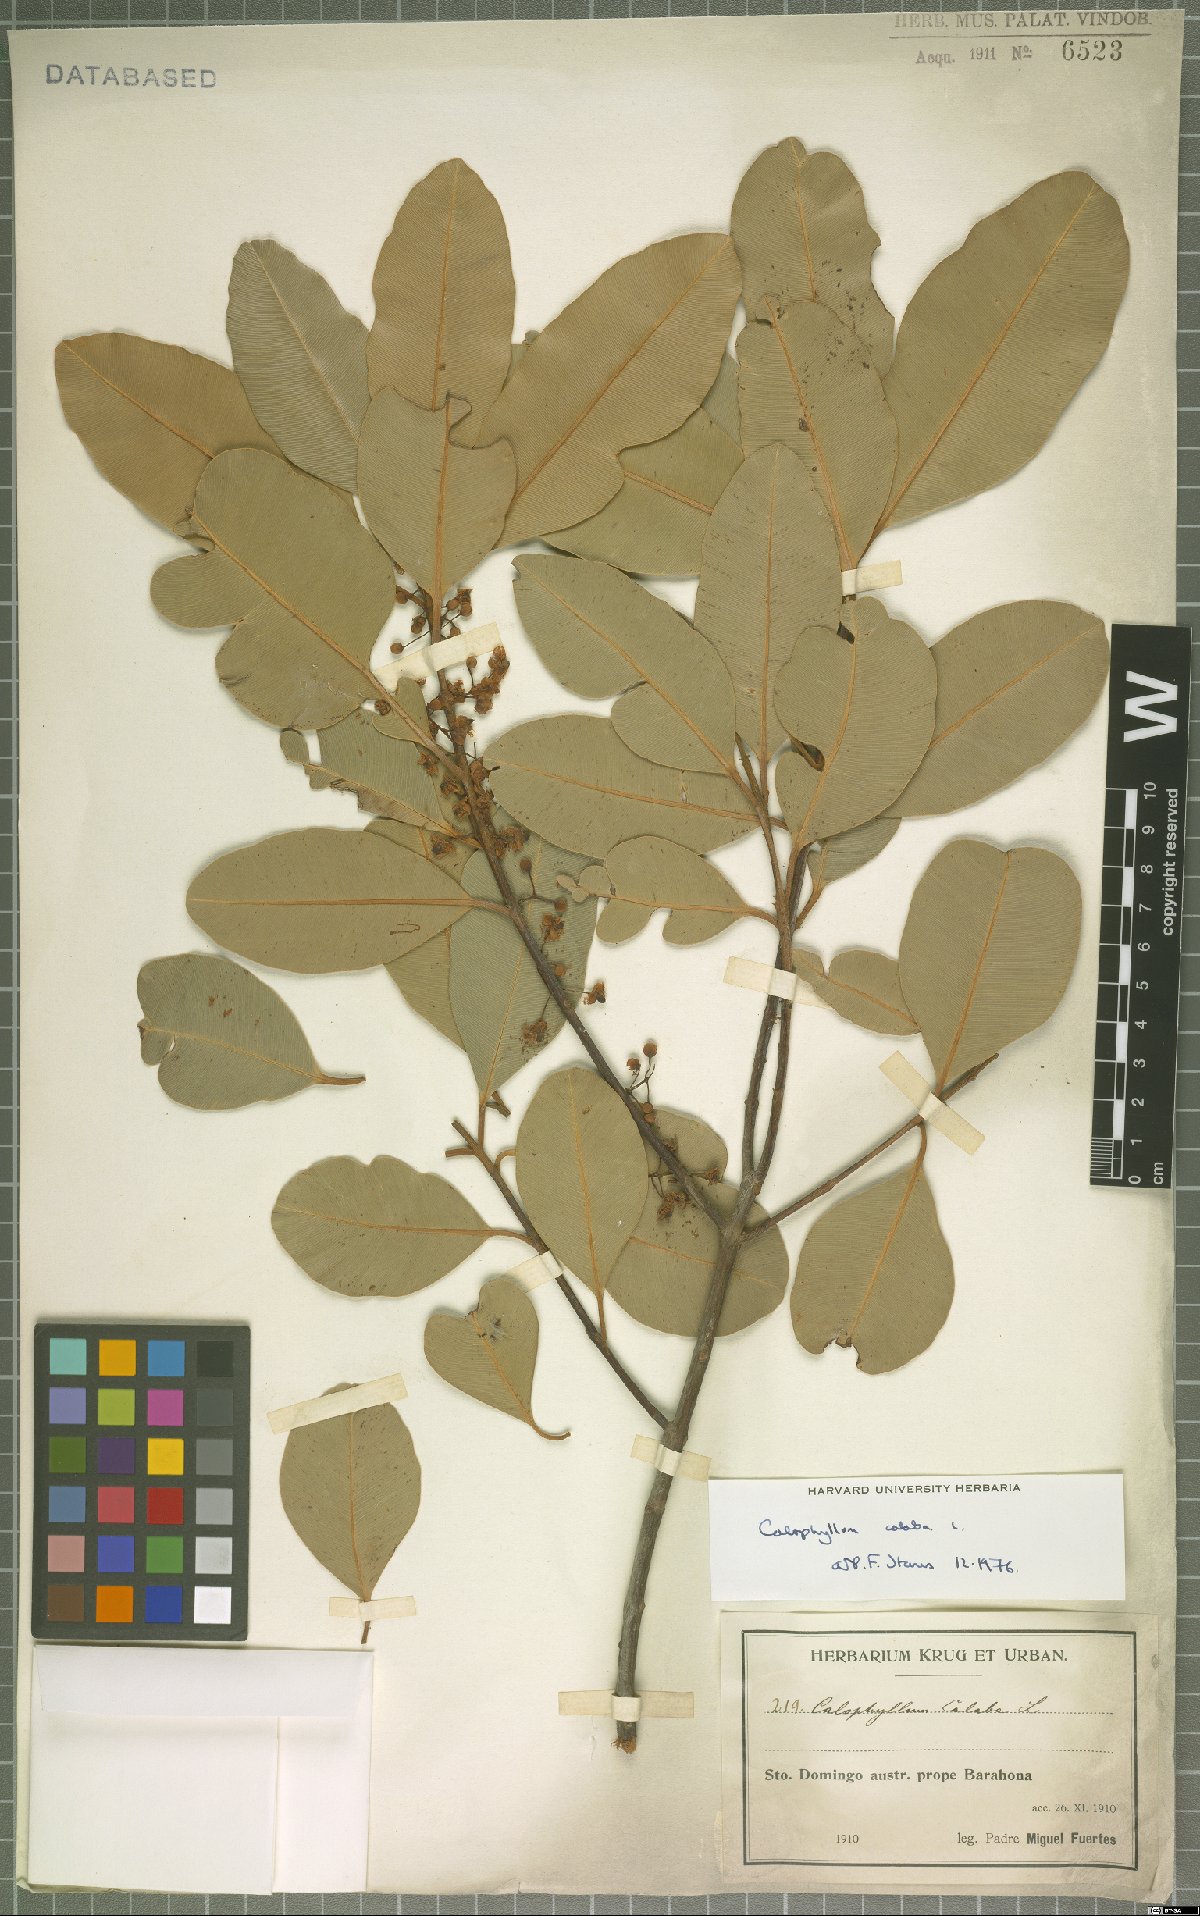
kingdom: Plantae
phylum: Tracheophyta
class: Magnoliopsida
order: Malpighiales
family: Calophyllaceae
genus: Calophyllum
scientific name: Calophyllum calaba
